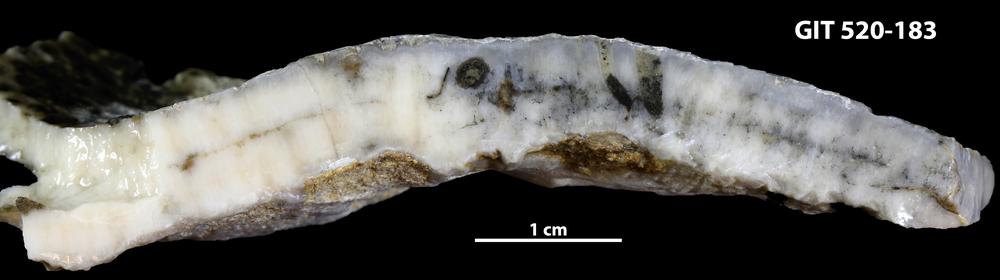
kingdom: Animalia
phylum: Cnidaria
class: Anthozoa
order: Heliolitina
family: Coccoserididae
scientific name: Coccoserididae
